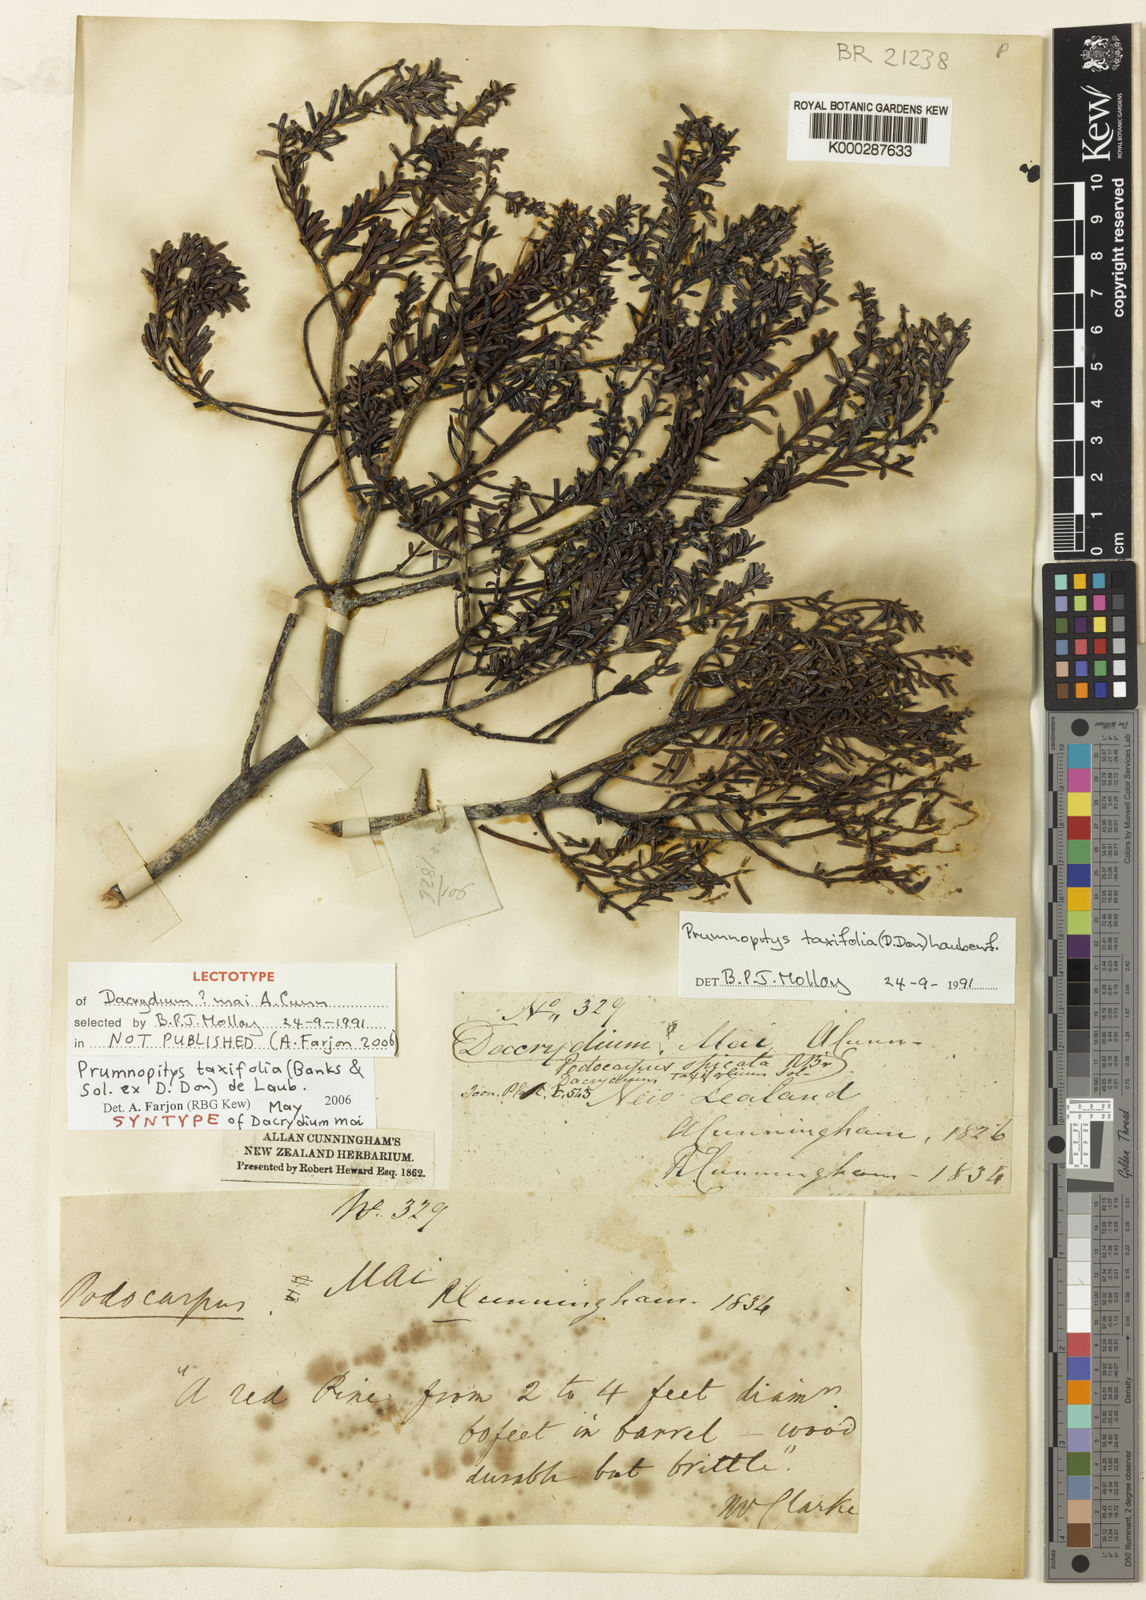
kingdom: Plantae
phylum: Tracheophyta
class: Pinopsida
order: Pinales
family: Podocarpaceae
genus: Prumnopitys
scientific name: Prumnopitys taxifolia
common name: Matai
